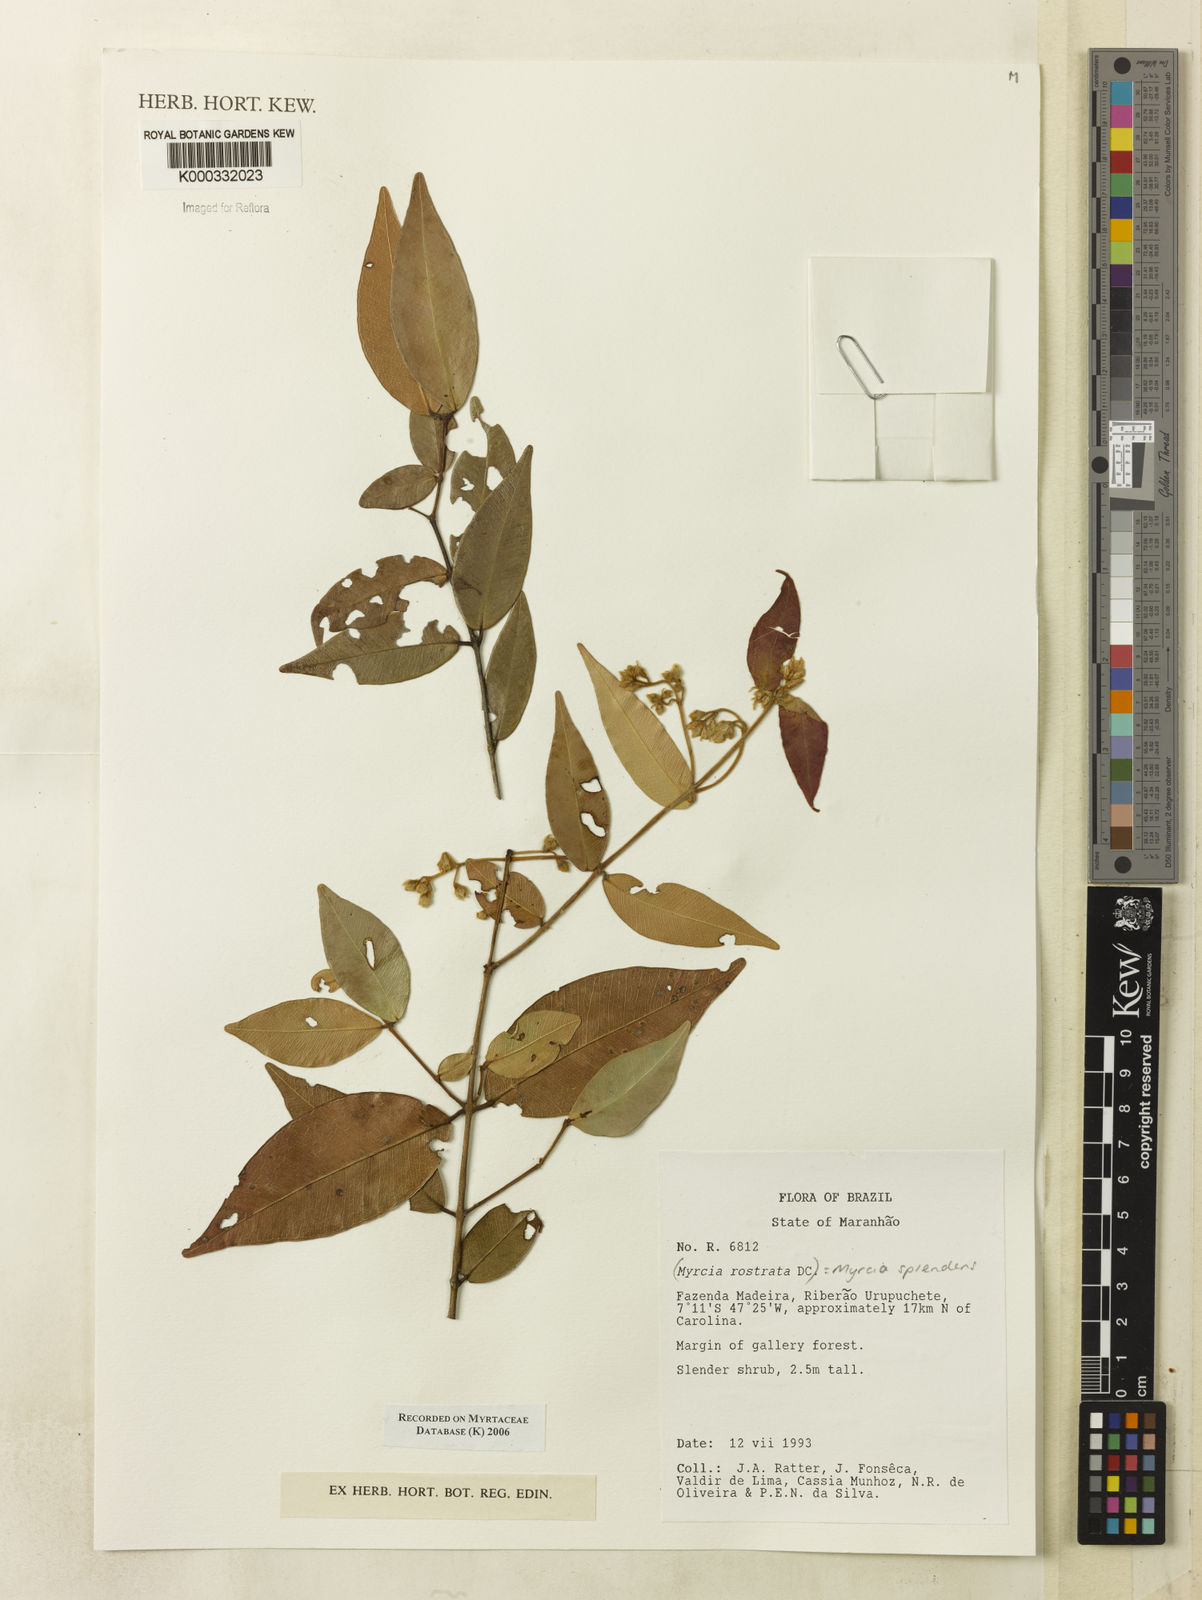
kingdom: Plantae
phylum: Tracheophyta
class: Magnoliopsida
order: Myrtales
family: Myrtaceae
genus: Myrcia
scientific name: Myrcia splendens
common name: Surinam cherry
